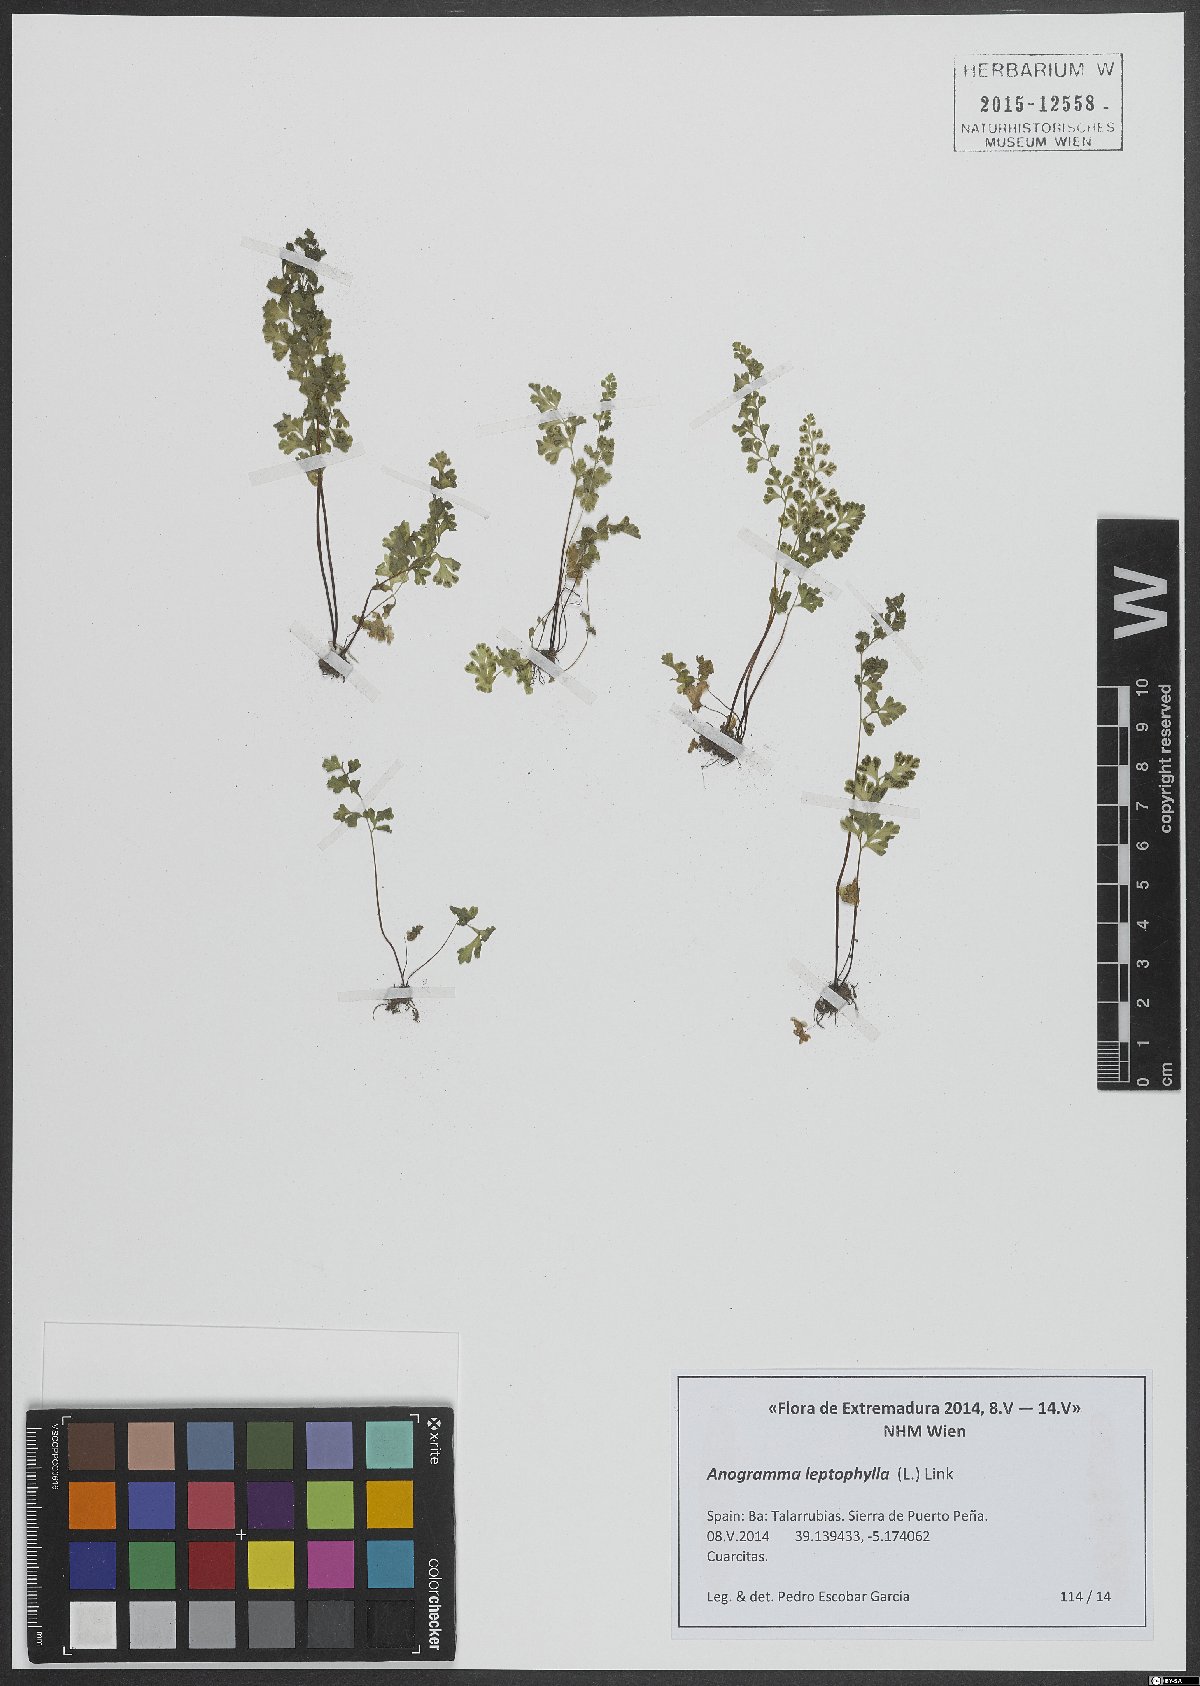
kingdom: Plantae
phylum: Tracheophyta
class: Polypodiopsida
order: Polypodiales
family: Pteridaceae
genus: Anogramma
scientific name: Anogramma leptophylla
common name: Jersey fern
